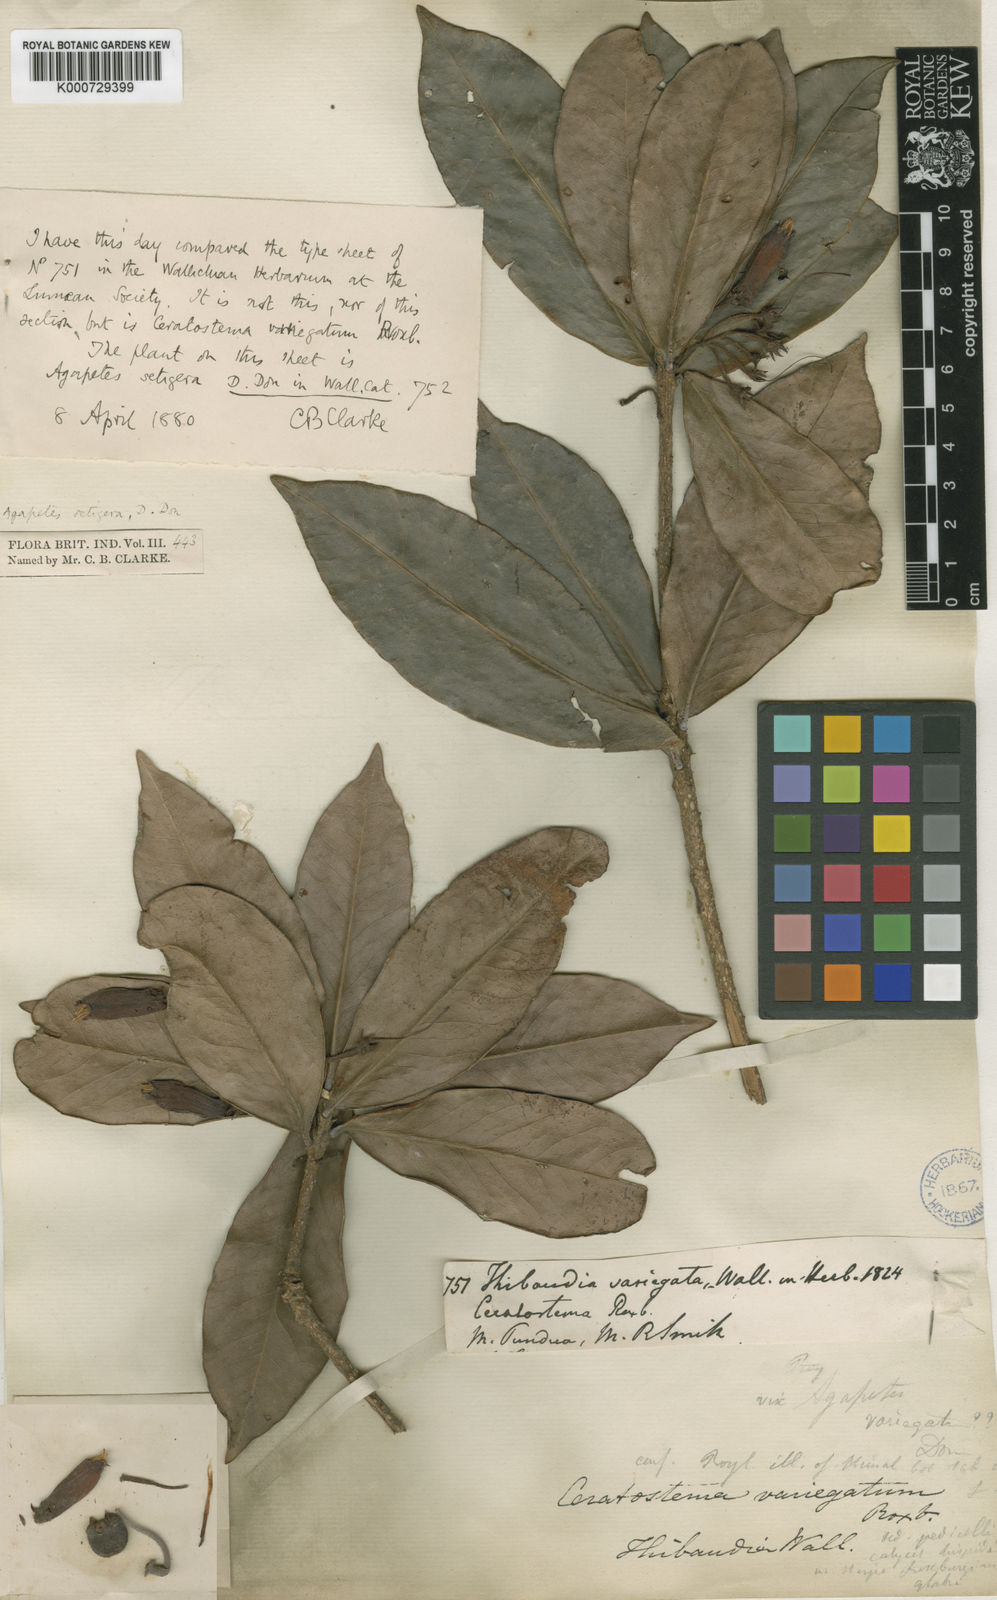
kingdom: Plantae
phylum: Tracheophyta
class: Magnoliopsida
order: Ericales
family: Ericaceae
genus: Agapetes
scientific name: Agapetes setigera
